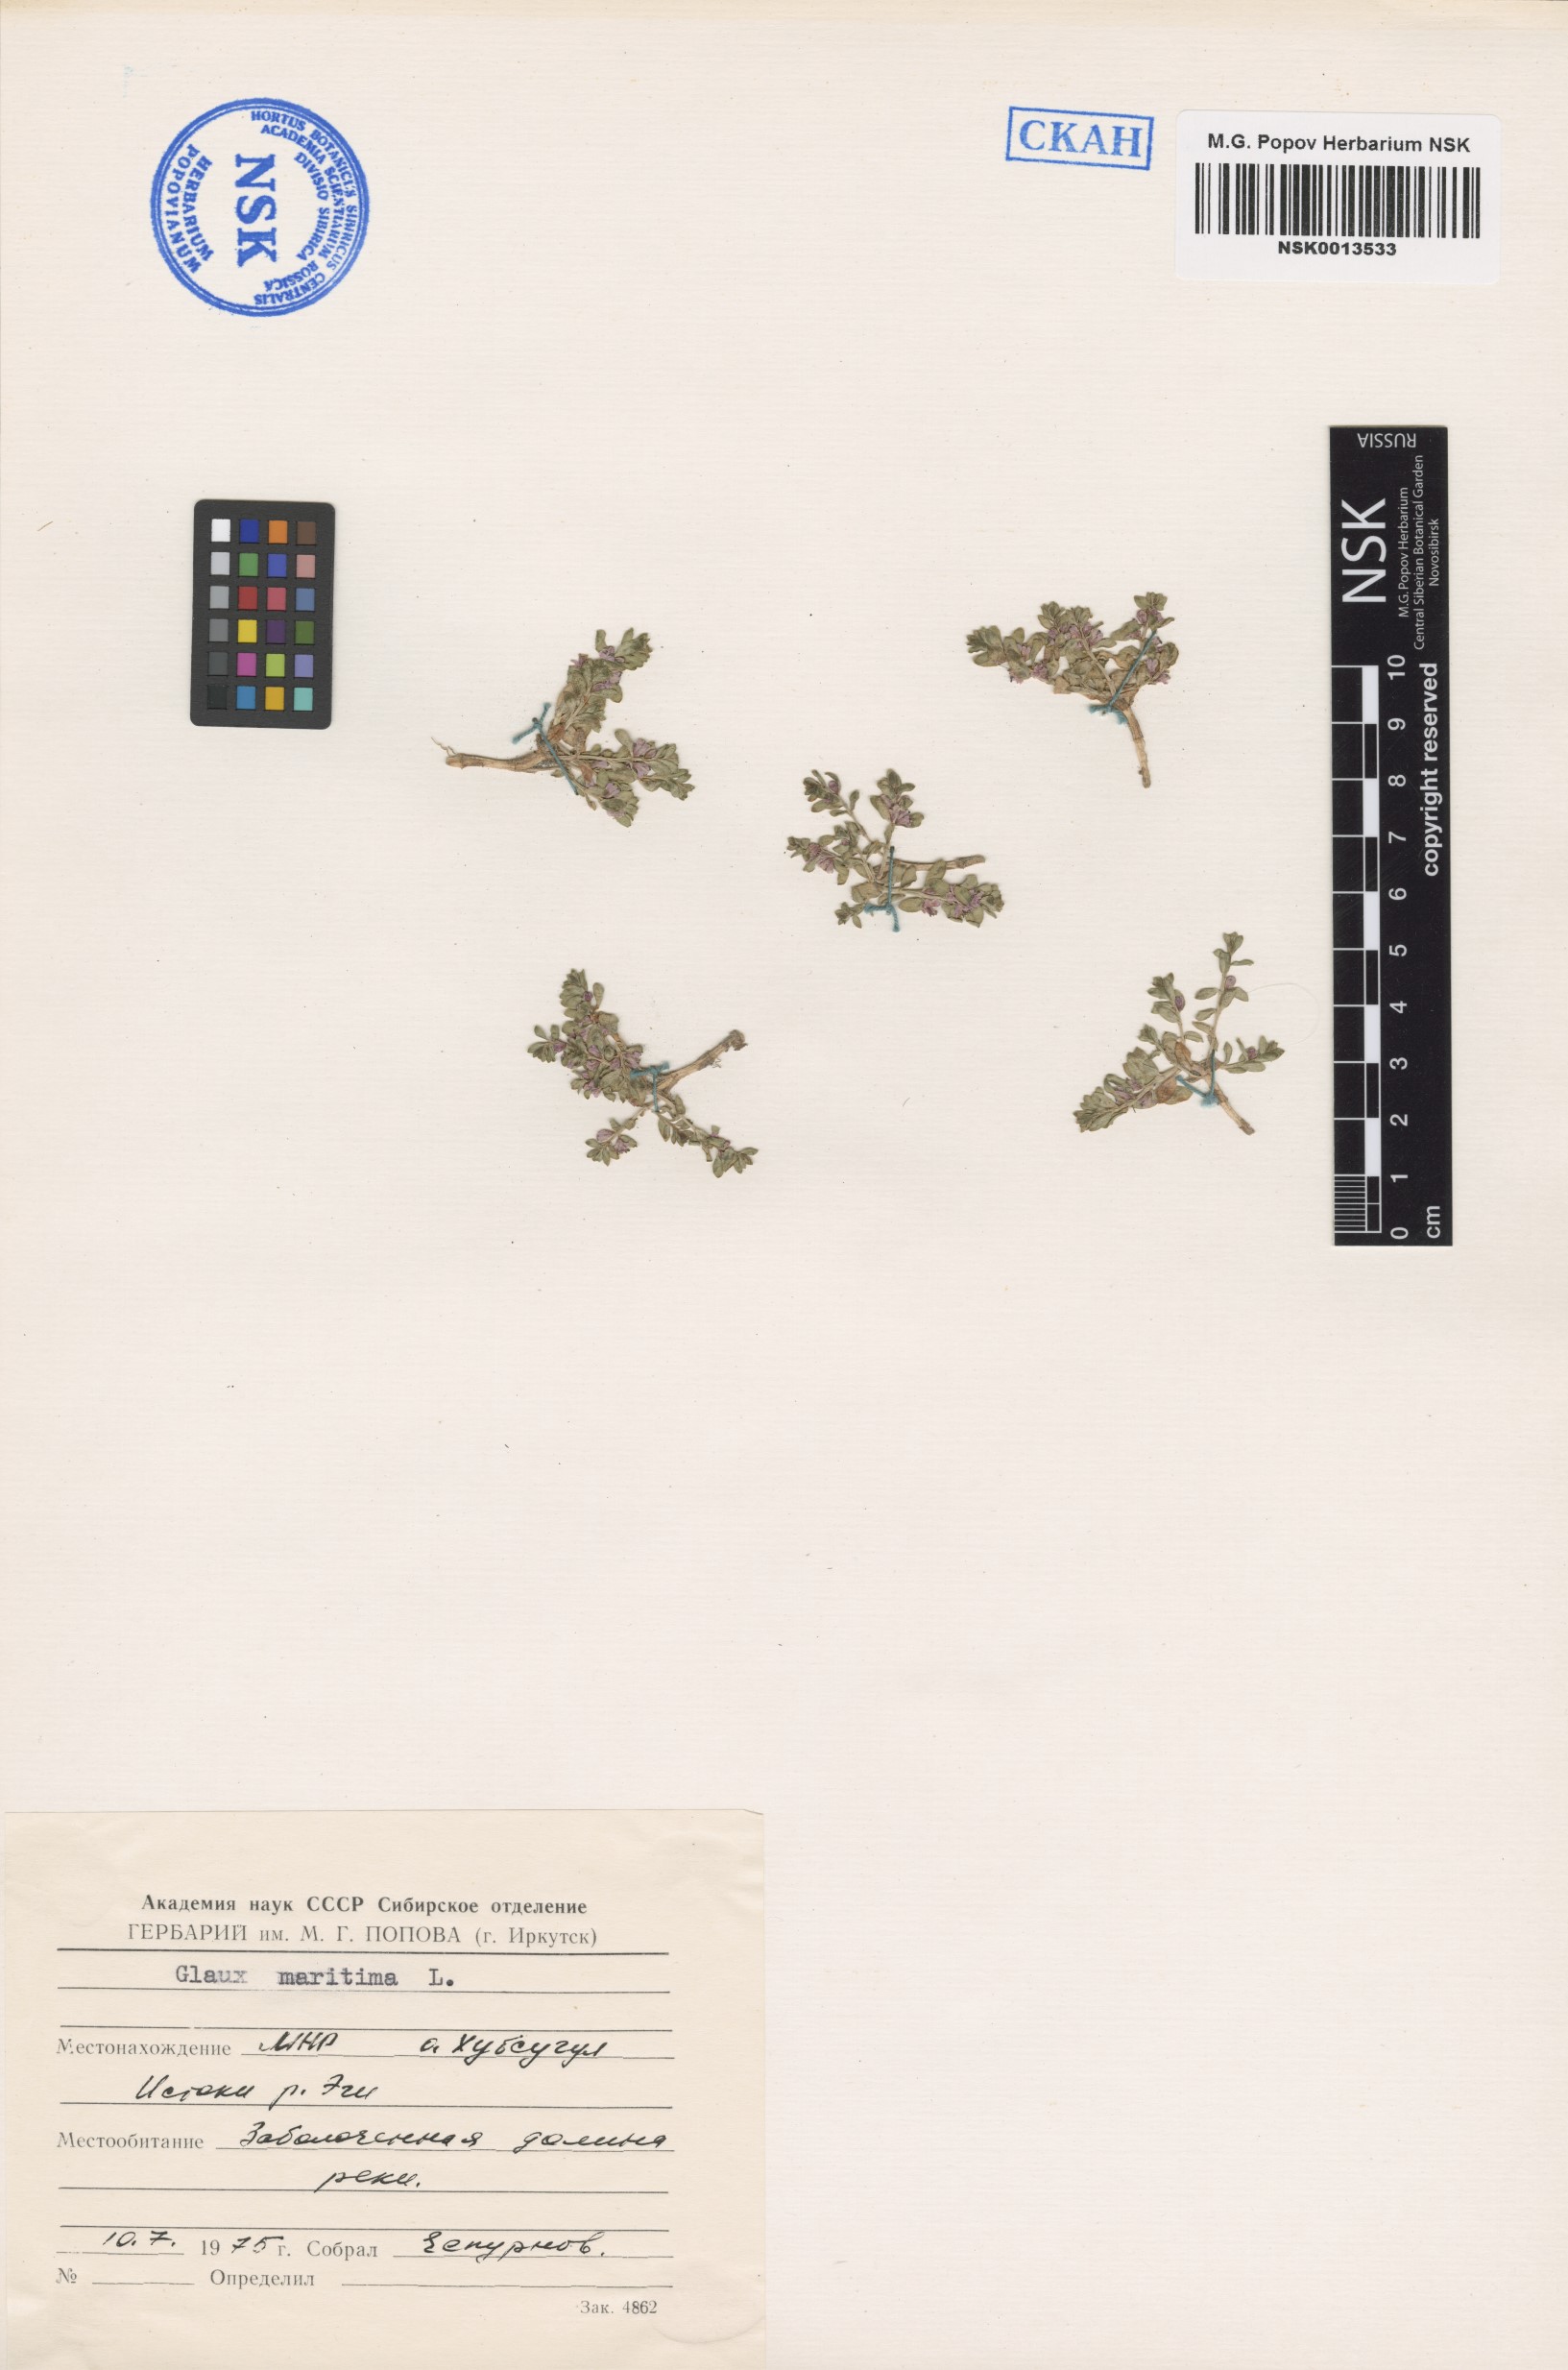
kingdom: Plantae
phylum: Tracheophyta
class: Magnoliopsida
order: Ericales
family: Primulaceae
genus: Lysimachia
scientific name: Lysimachia maritima
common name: Sea milkwort
